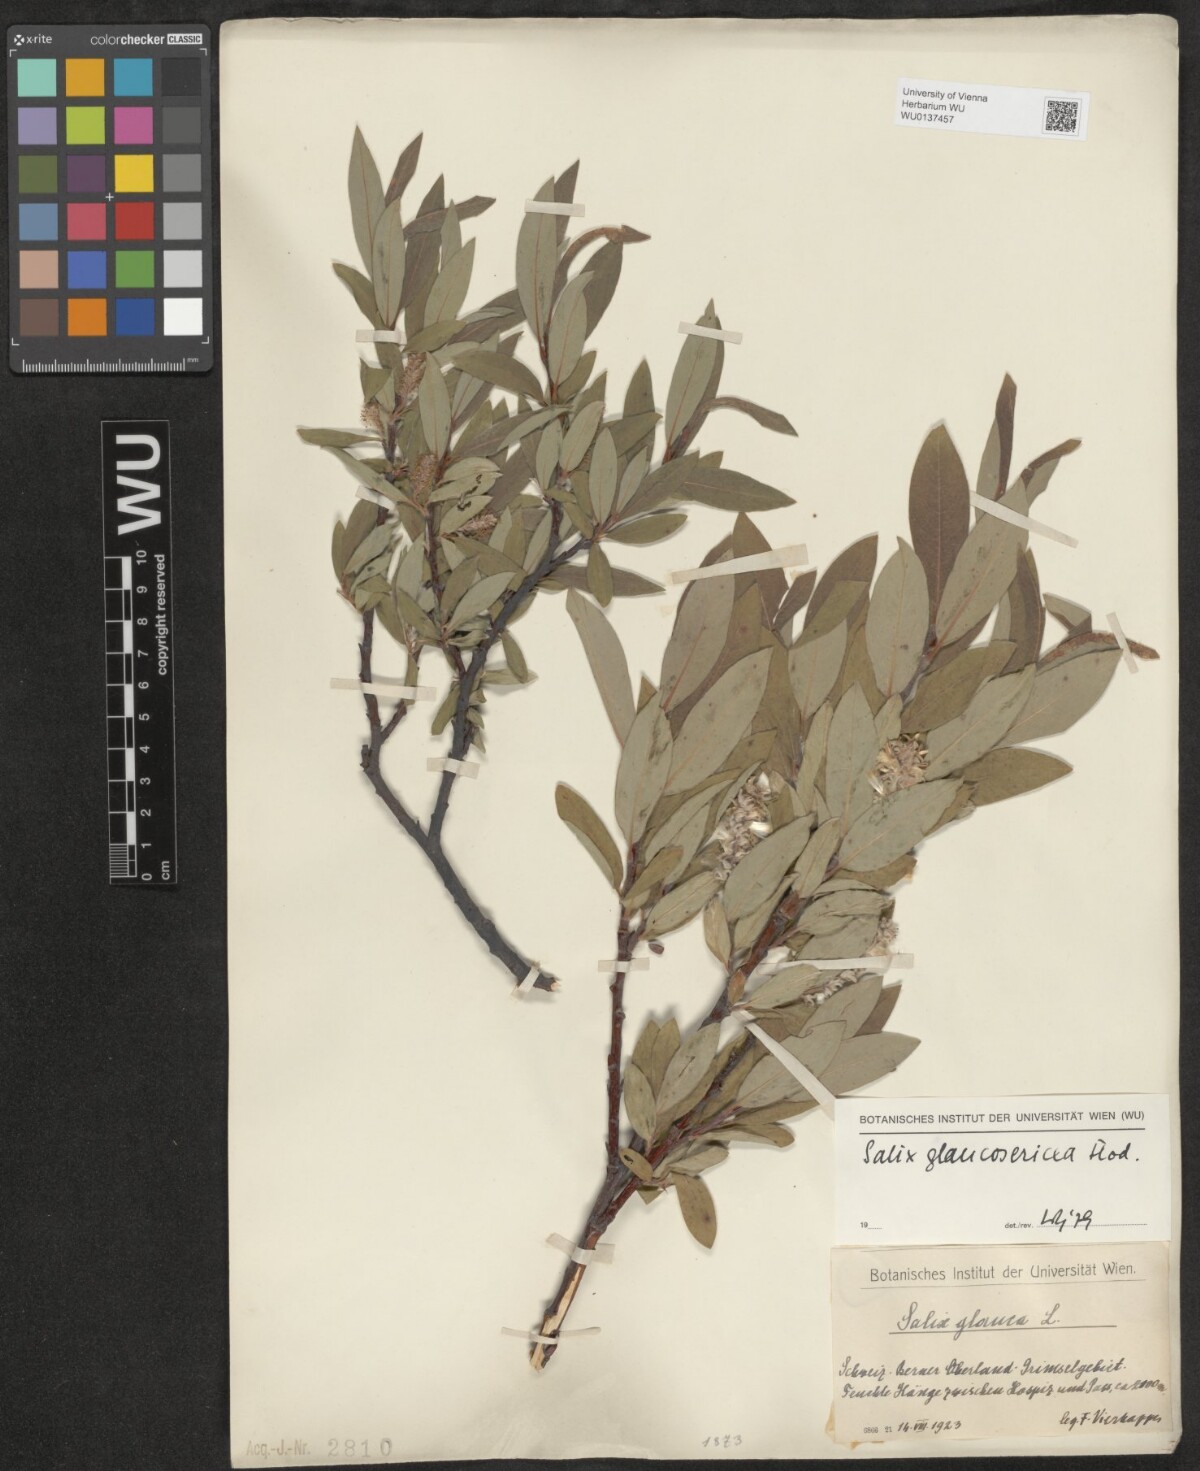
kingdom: Plantae
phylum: Tracheophyta
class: Magnoliopsida
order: Malpighiales
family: Salicaceae
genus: Salix
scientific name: Salix glaucosericea
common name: Alpine gray willow
